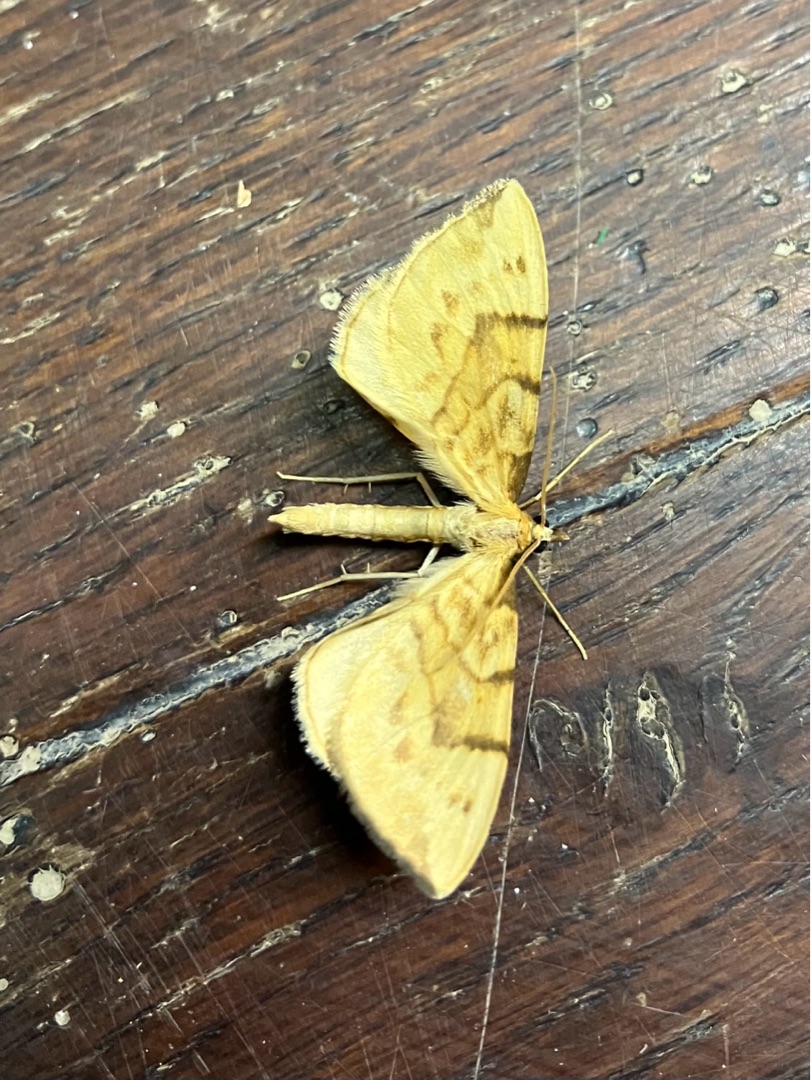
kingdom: Animalia
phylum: Arthropoda
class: Insecta
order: Lepidoptera
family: Geometridae
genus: Eulithis
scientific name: Eulithis pyraliata
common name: Citrongul havemåler
